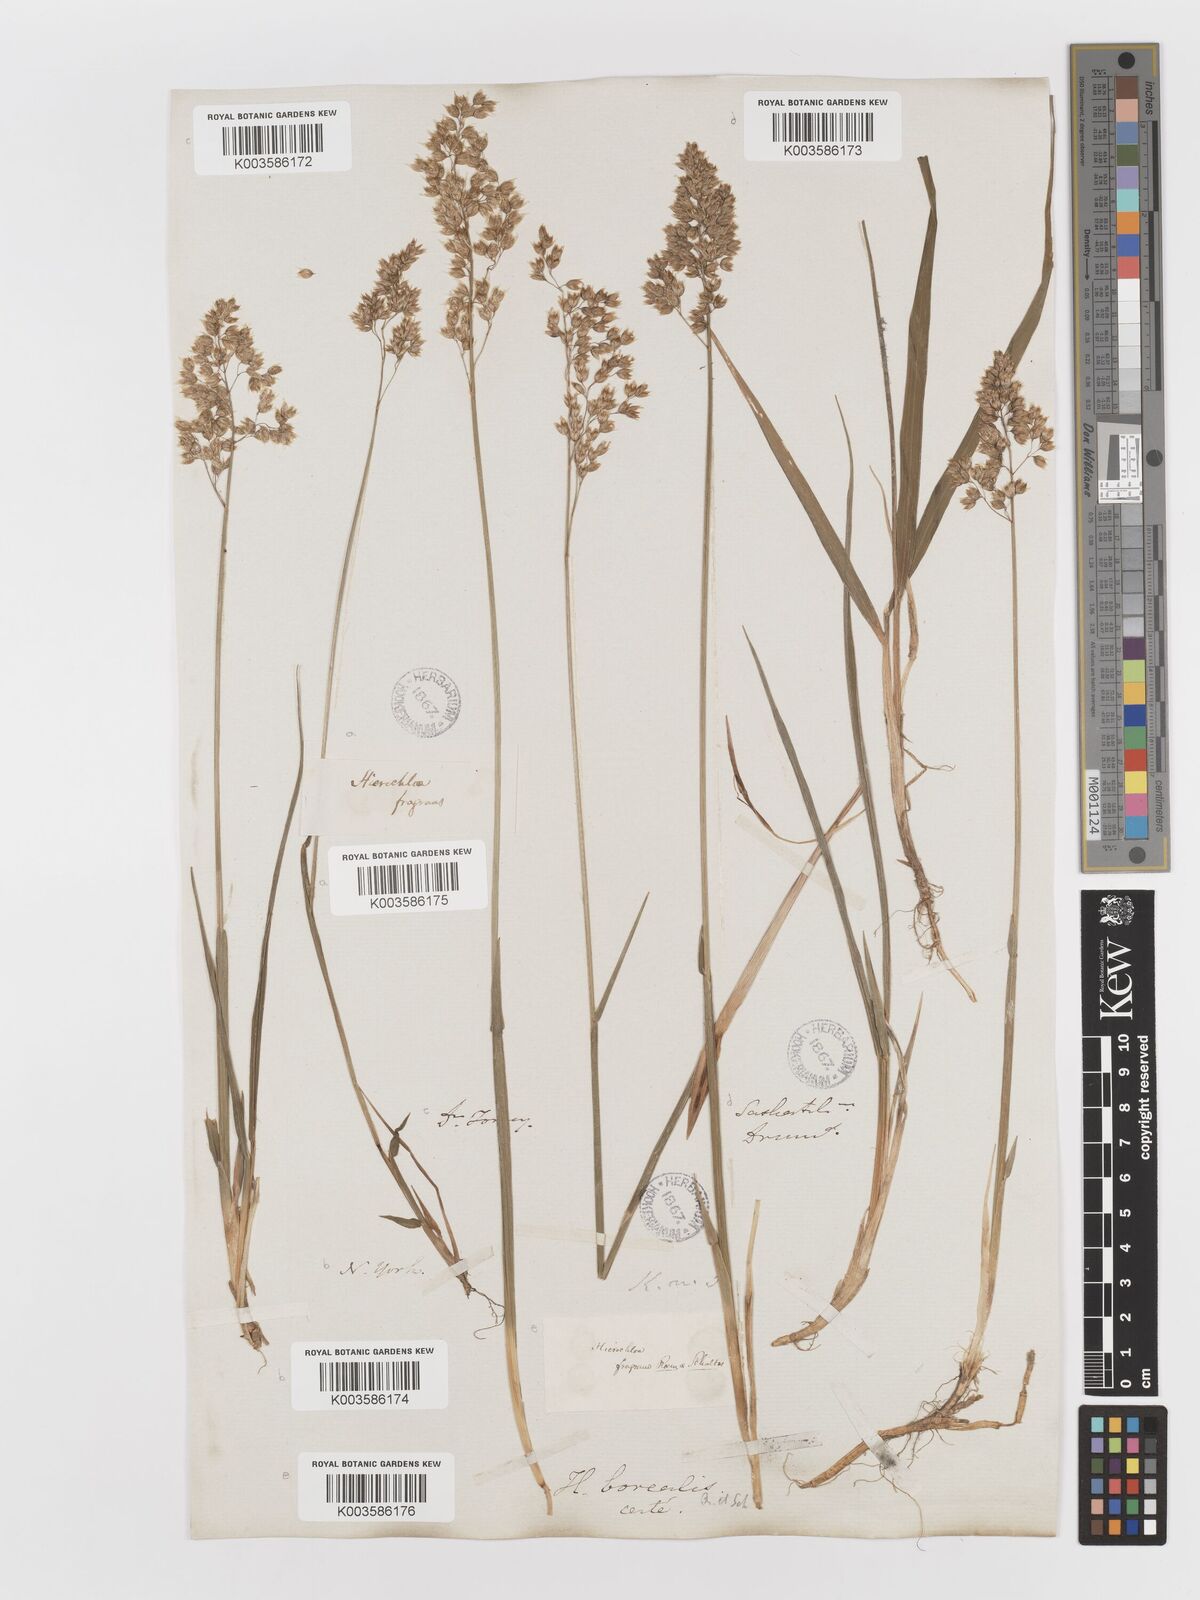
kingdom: Plantae
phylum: Tracheophyta
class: Liliopsida
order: Poales
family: Poaceae
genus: Anthoxanthum
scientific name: Anthoxanthum nitens
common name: Holy grass
